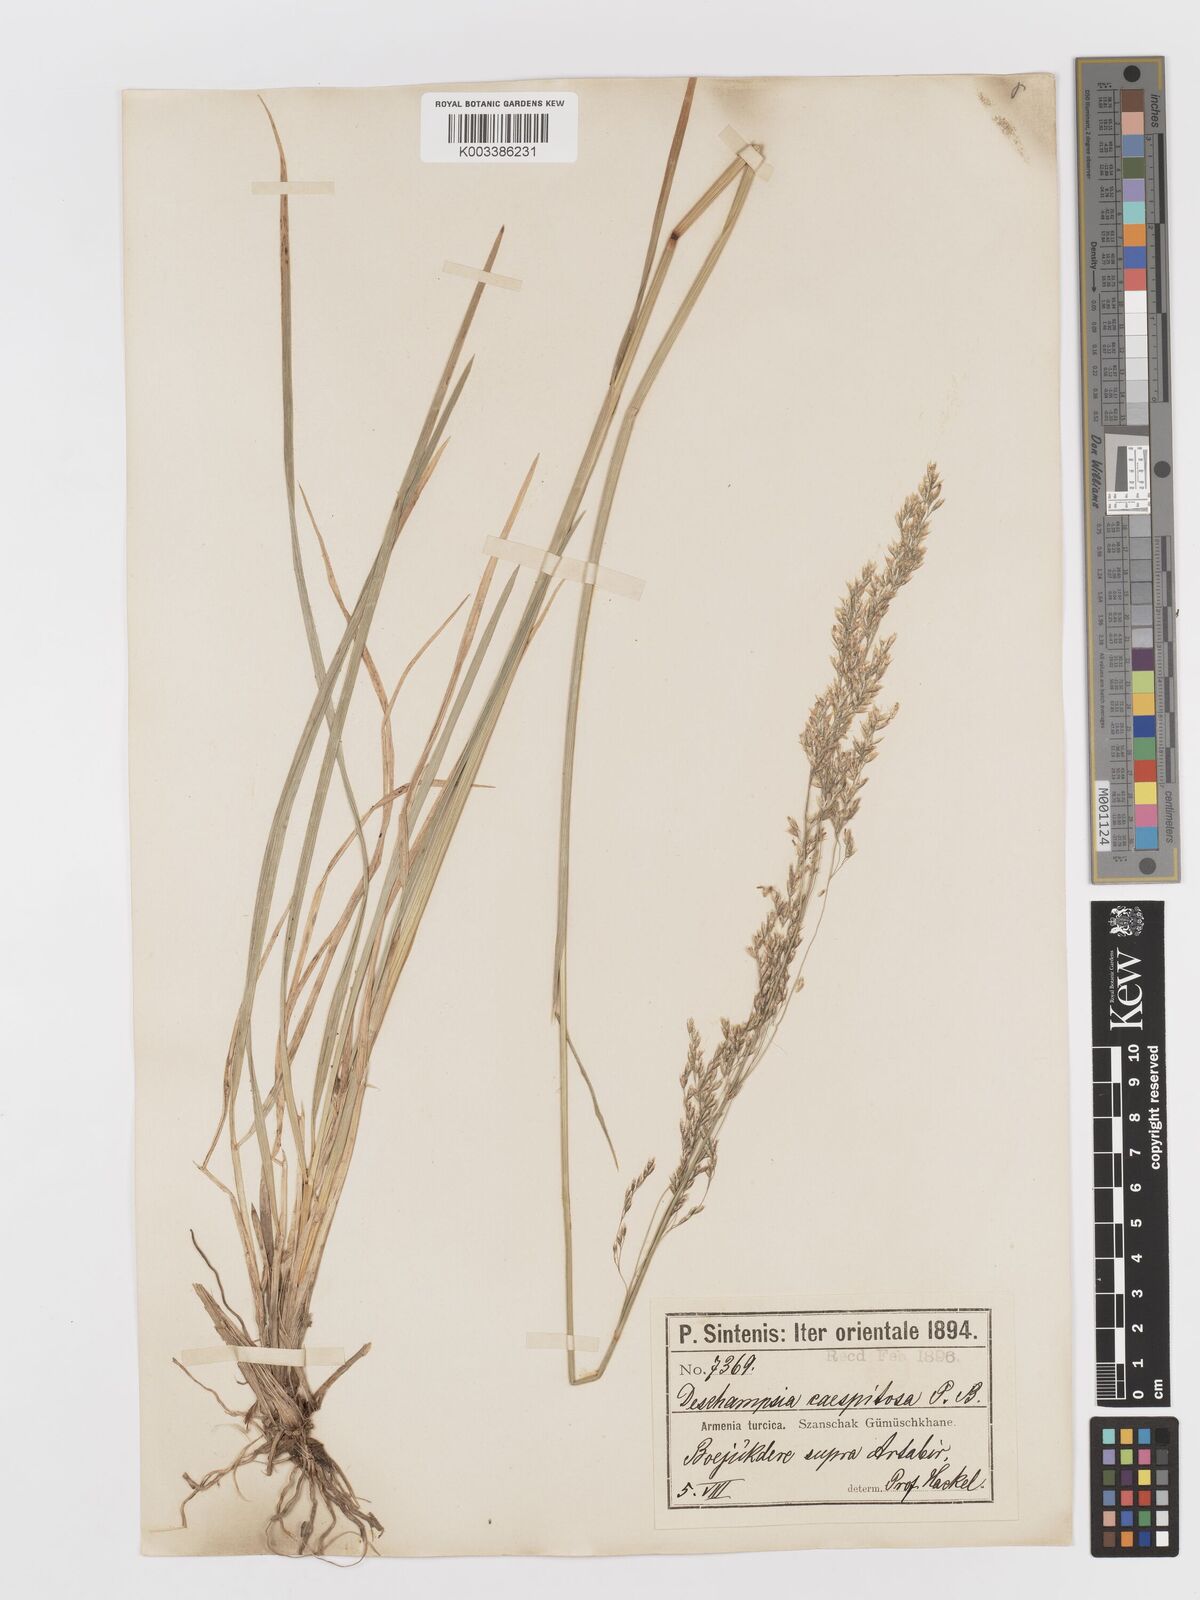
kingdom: Plantae
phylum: Tracheophyta
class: Liliopsida
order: Poales
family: Poaceae
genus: Deschampsia
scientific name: Deschampsia cespitosa
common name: Tufted hair-grass
